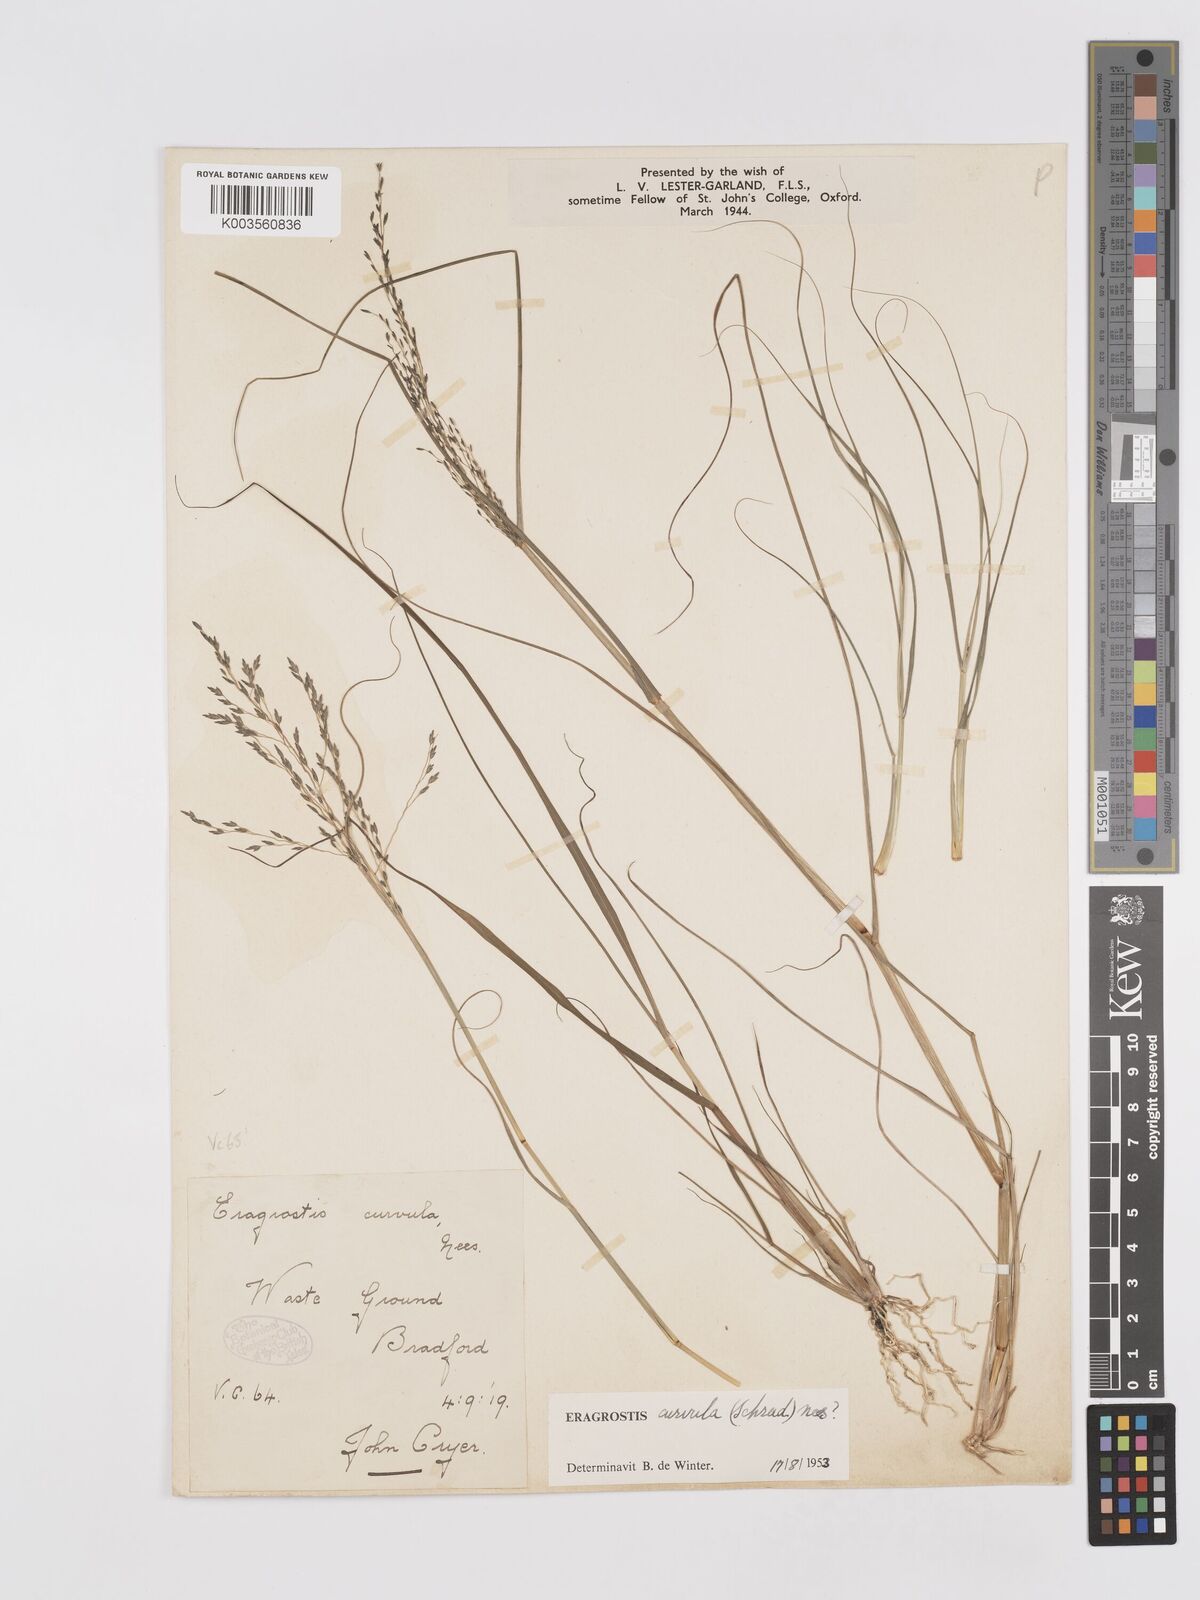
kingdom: Plantae
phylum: Tracheophyta
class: Liliopsida
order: Poales
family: Poaceae
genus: Eragrostis
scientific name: Eragrostis curvula
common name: African love-grass
